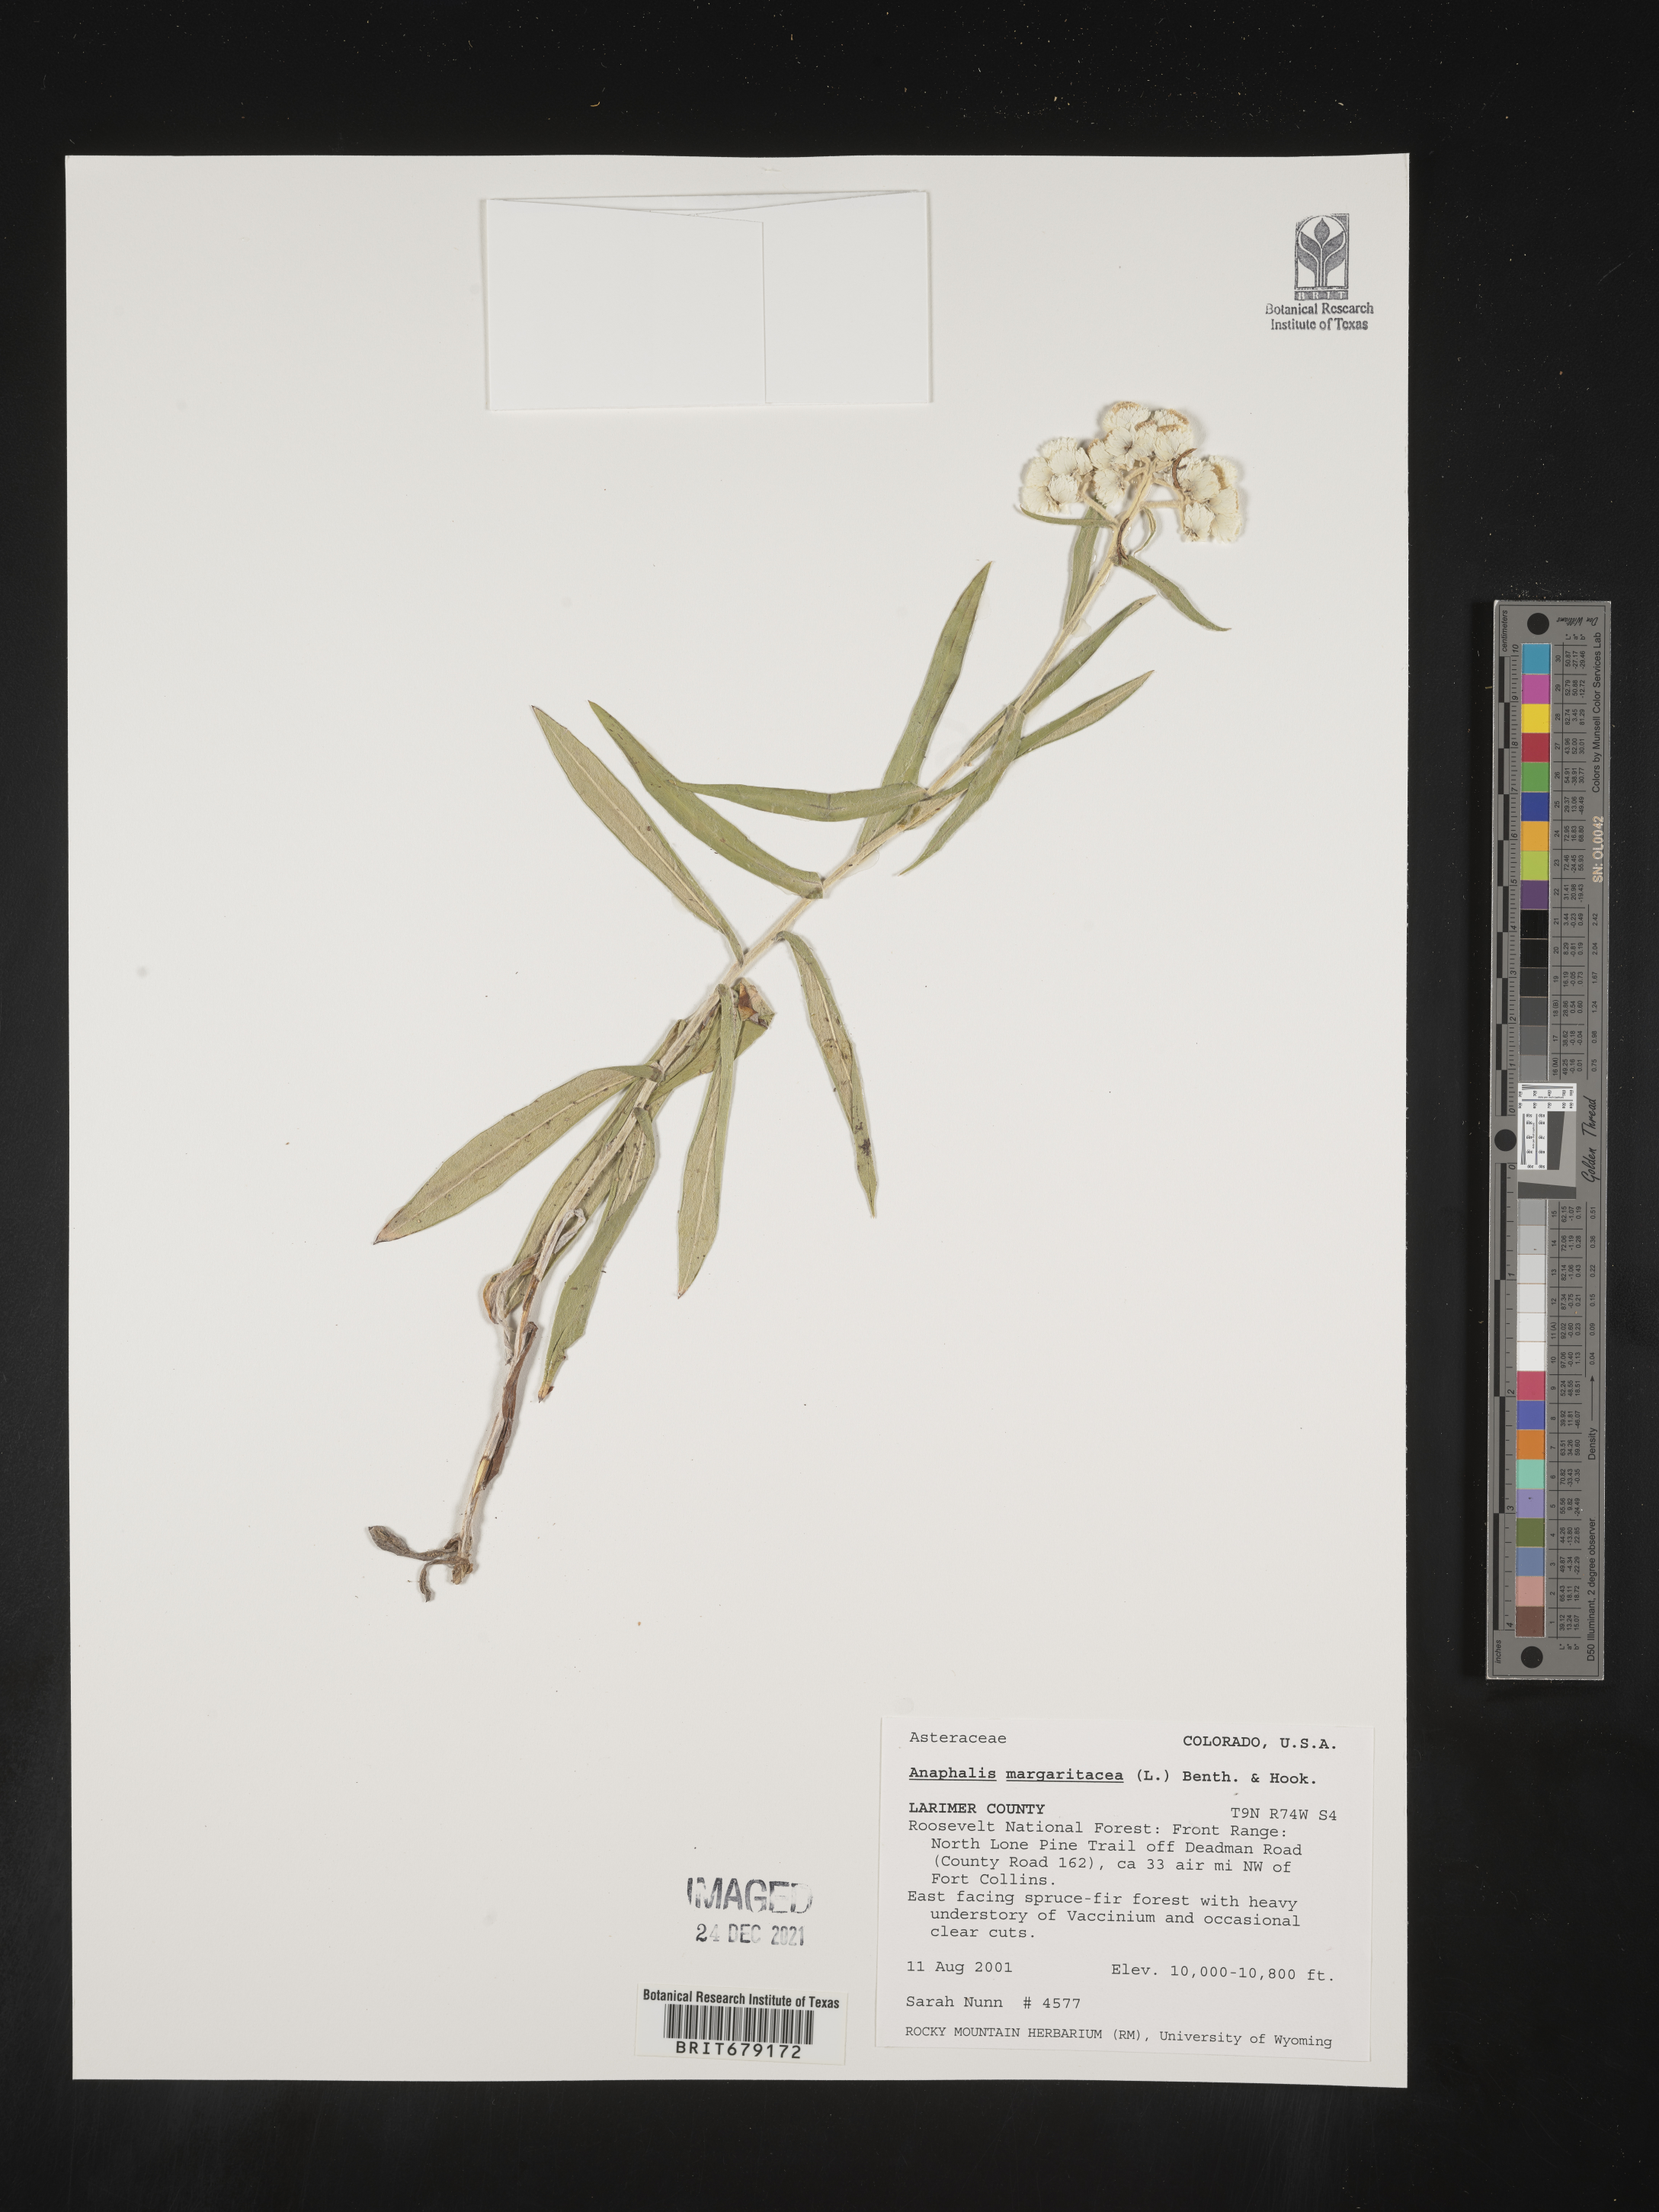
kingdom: Plantae
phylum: Tracheophyta
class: Magnoliopsida
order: Asterales
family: Asteraceae
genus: Anaphalis
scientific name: Anaphalis margaritacea
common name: Pearly everlasting
